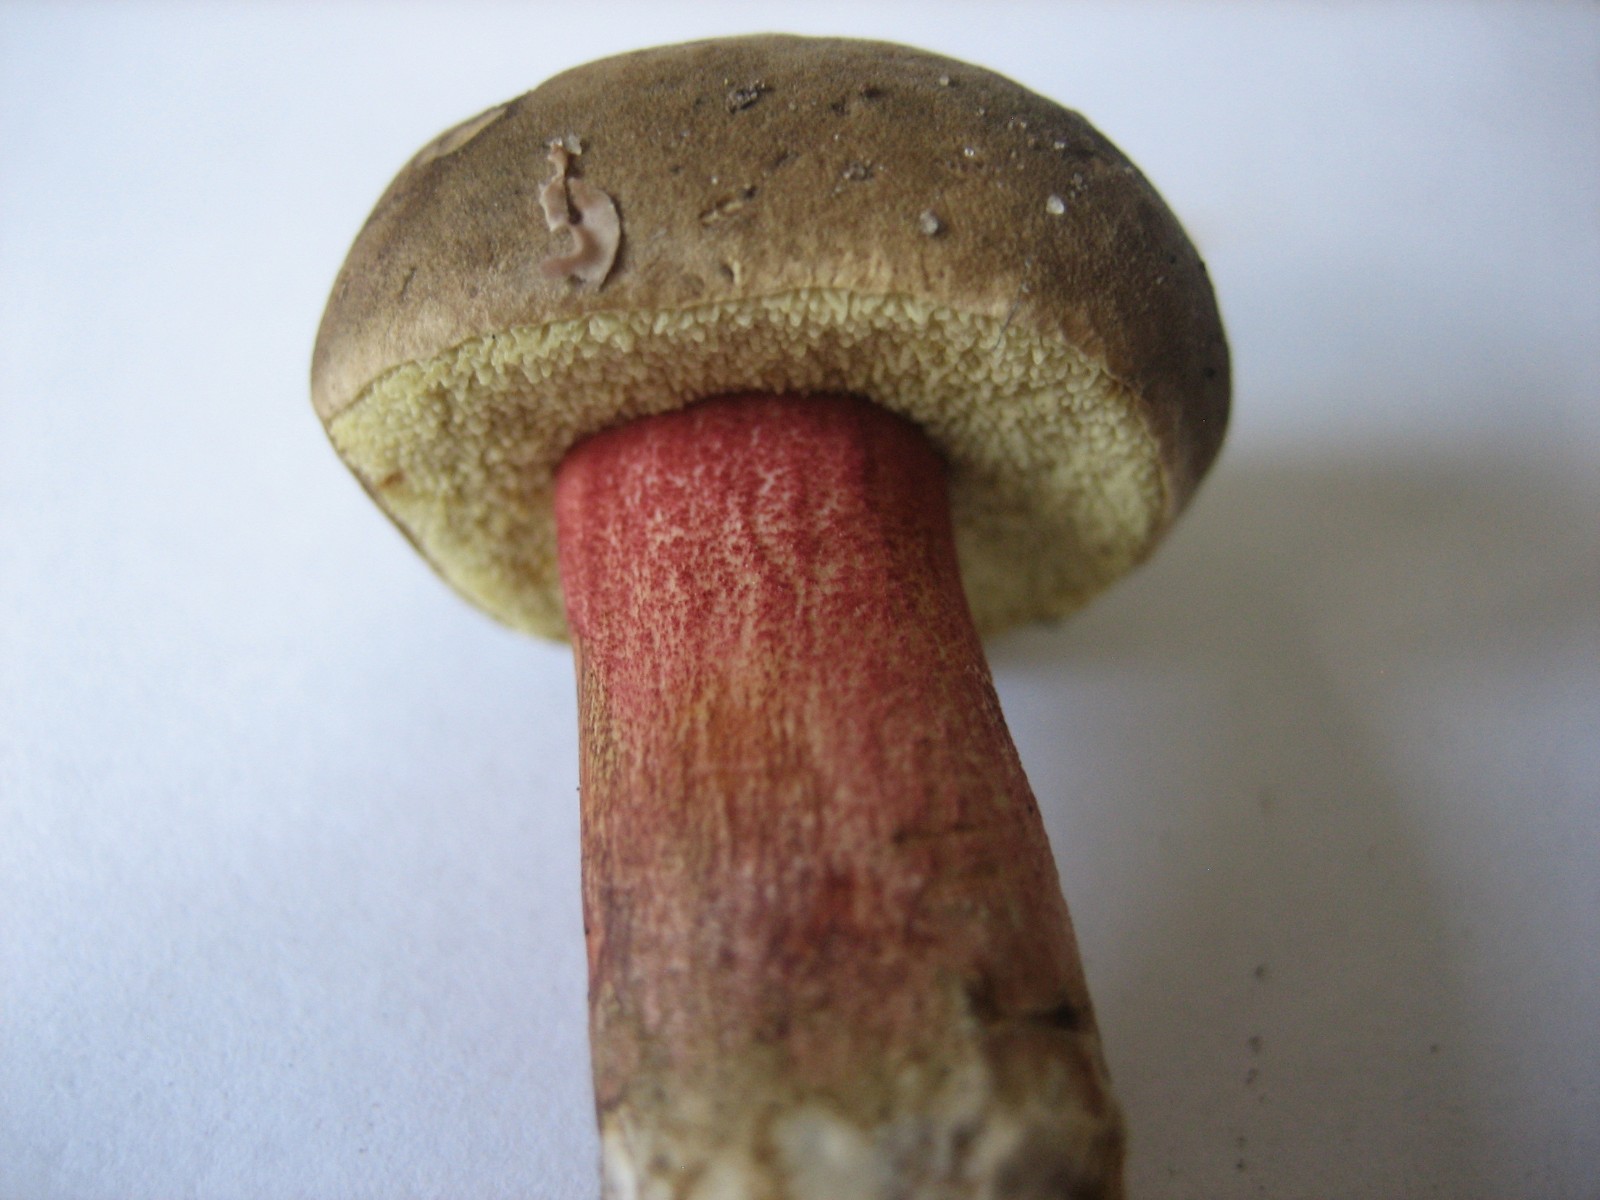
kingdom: Fungi
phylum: Basidiomycota
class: Agaricomycetes
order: Boletales
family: Boletaceae
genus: Xerocomellus
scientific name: Xerocomellus
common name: dværgrørhat
